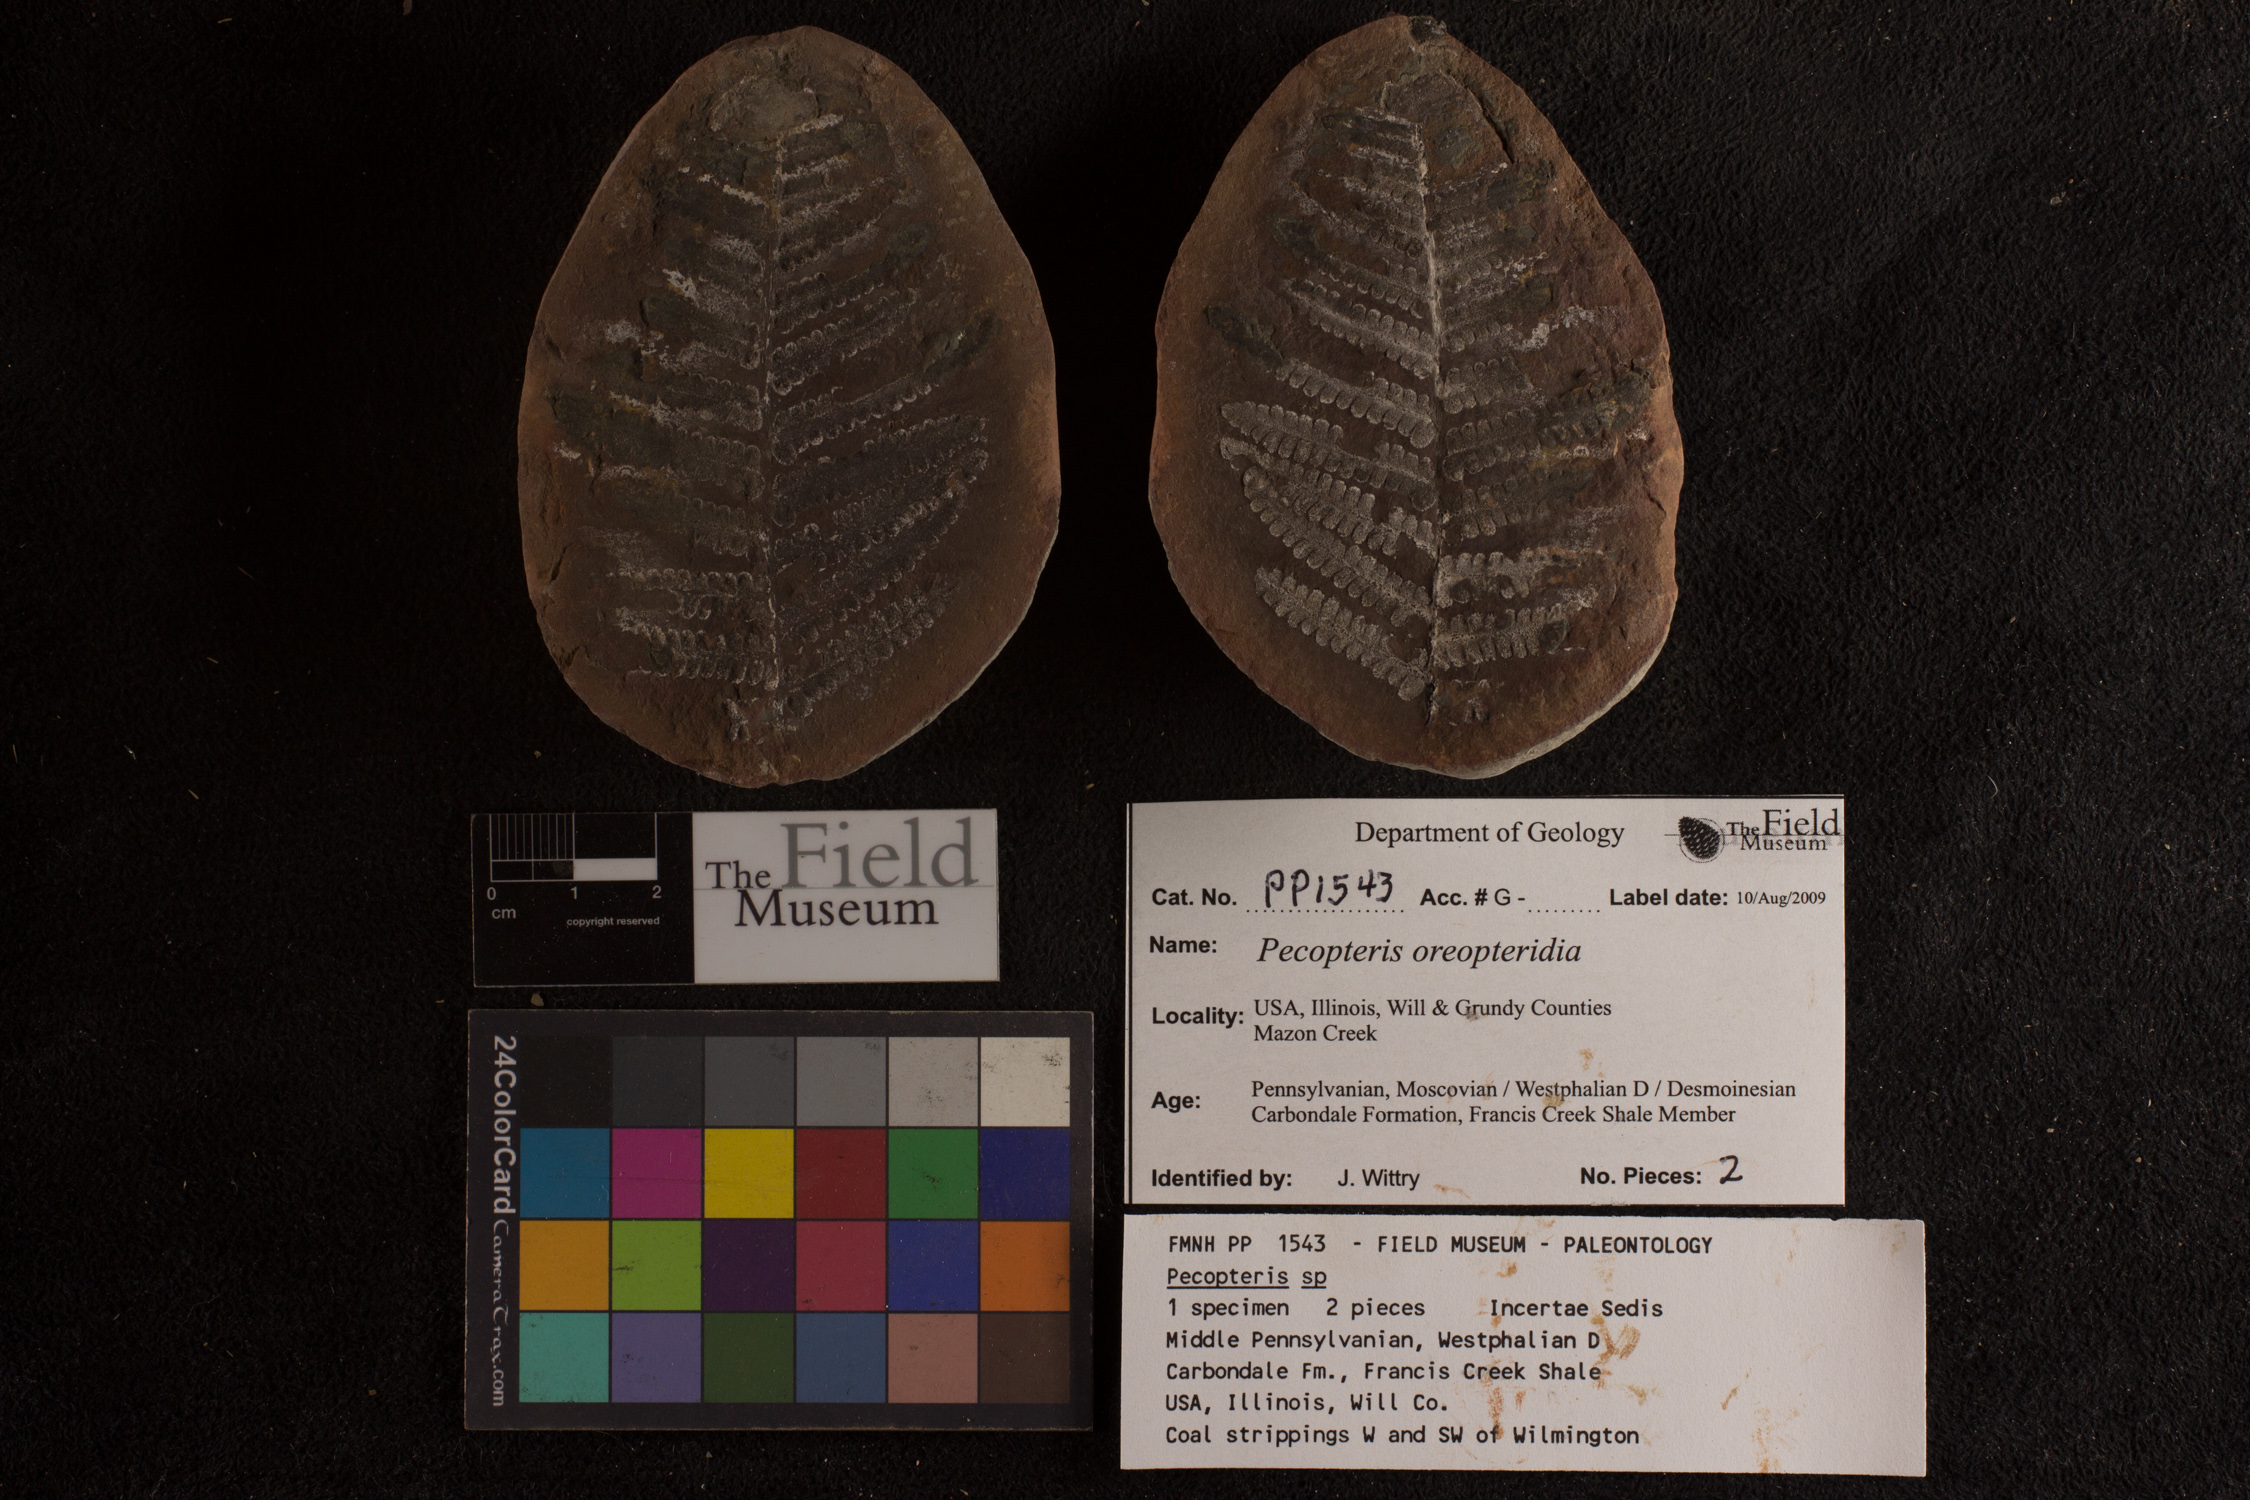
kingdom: Plantae
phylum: Tracheophyta
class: Polypodiopsida
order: Marattiales
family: Asterothecaceae
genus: Pecopteris
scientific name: Pecopteris
